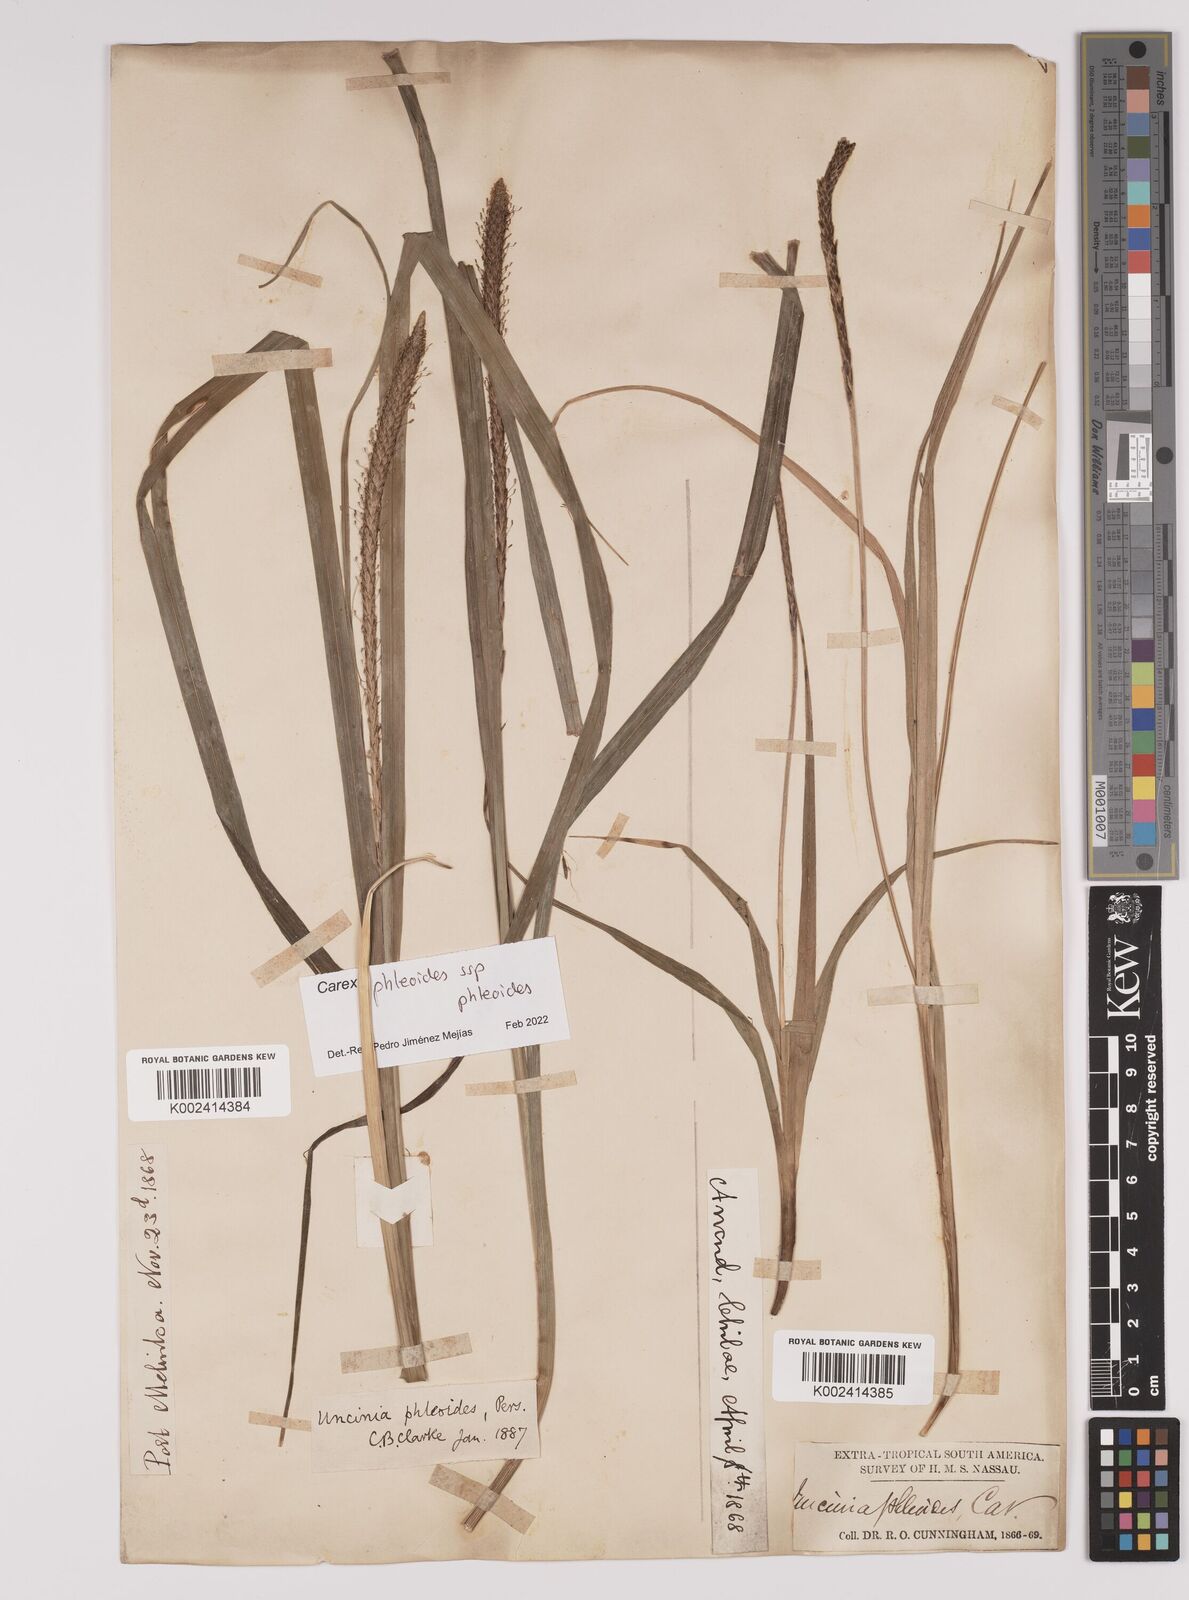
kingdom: Plantae
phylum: Tracheophyta
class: Liliopsida
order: Poales
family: Cyperaceae
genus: Carex
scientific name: Carex phleoides
